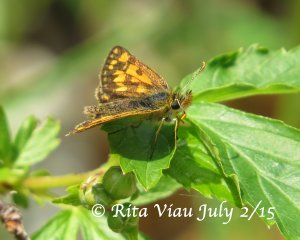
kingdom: Animalia
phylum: Arthropoda
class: Insecta
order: Lepidoptera
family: Hesperiidae
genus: Carterocephalus
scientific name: Carterocephalus palaemon
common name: Chequered Skipper
